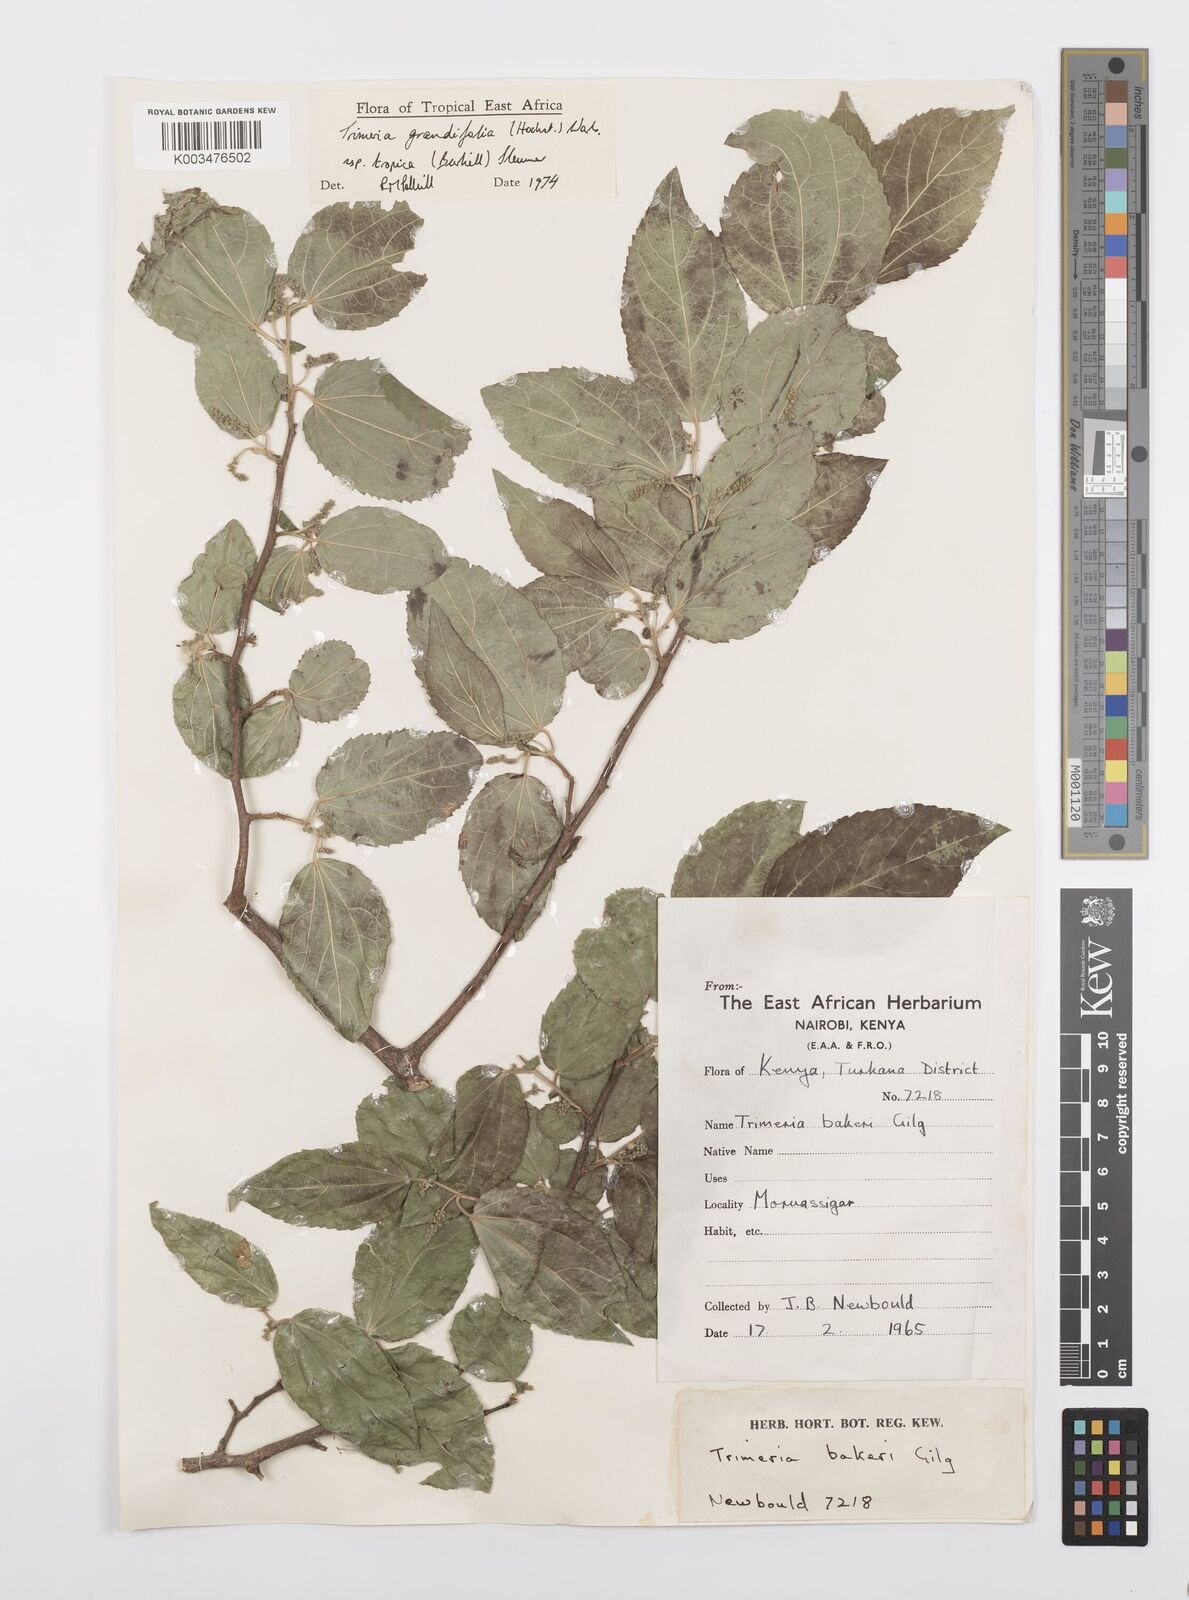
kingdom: Plantae
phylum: Tracheophyta
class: Magnoliopsida
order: Malpighiales
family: Salicaceae
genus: Trimeria
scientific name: Trimeria grandifolia
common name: Wild mulberry
